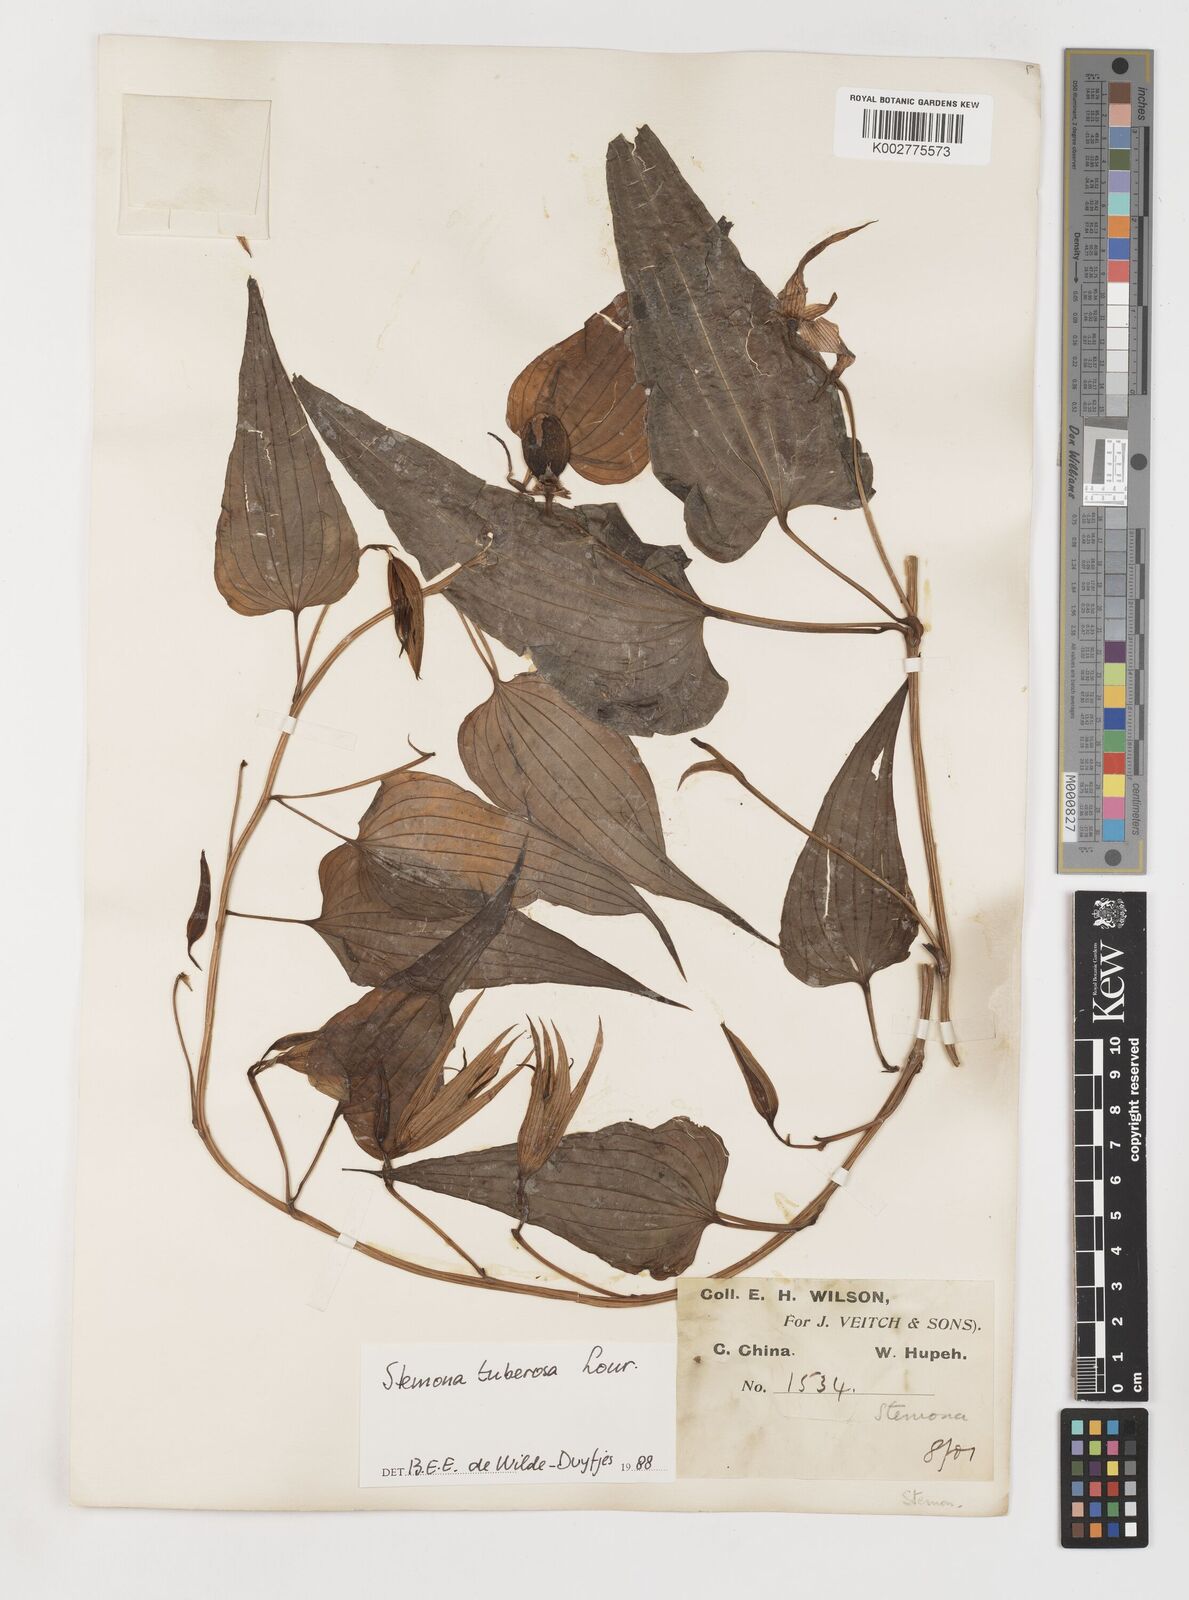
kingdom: Plantae
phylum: Tracheophyta
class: Liliopsida
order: Pandanales
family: Stemonaceae
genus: Stemona
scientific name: Stemona tuberosa
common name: Stemona
